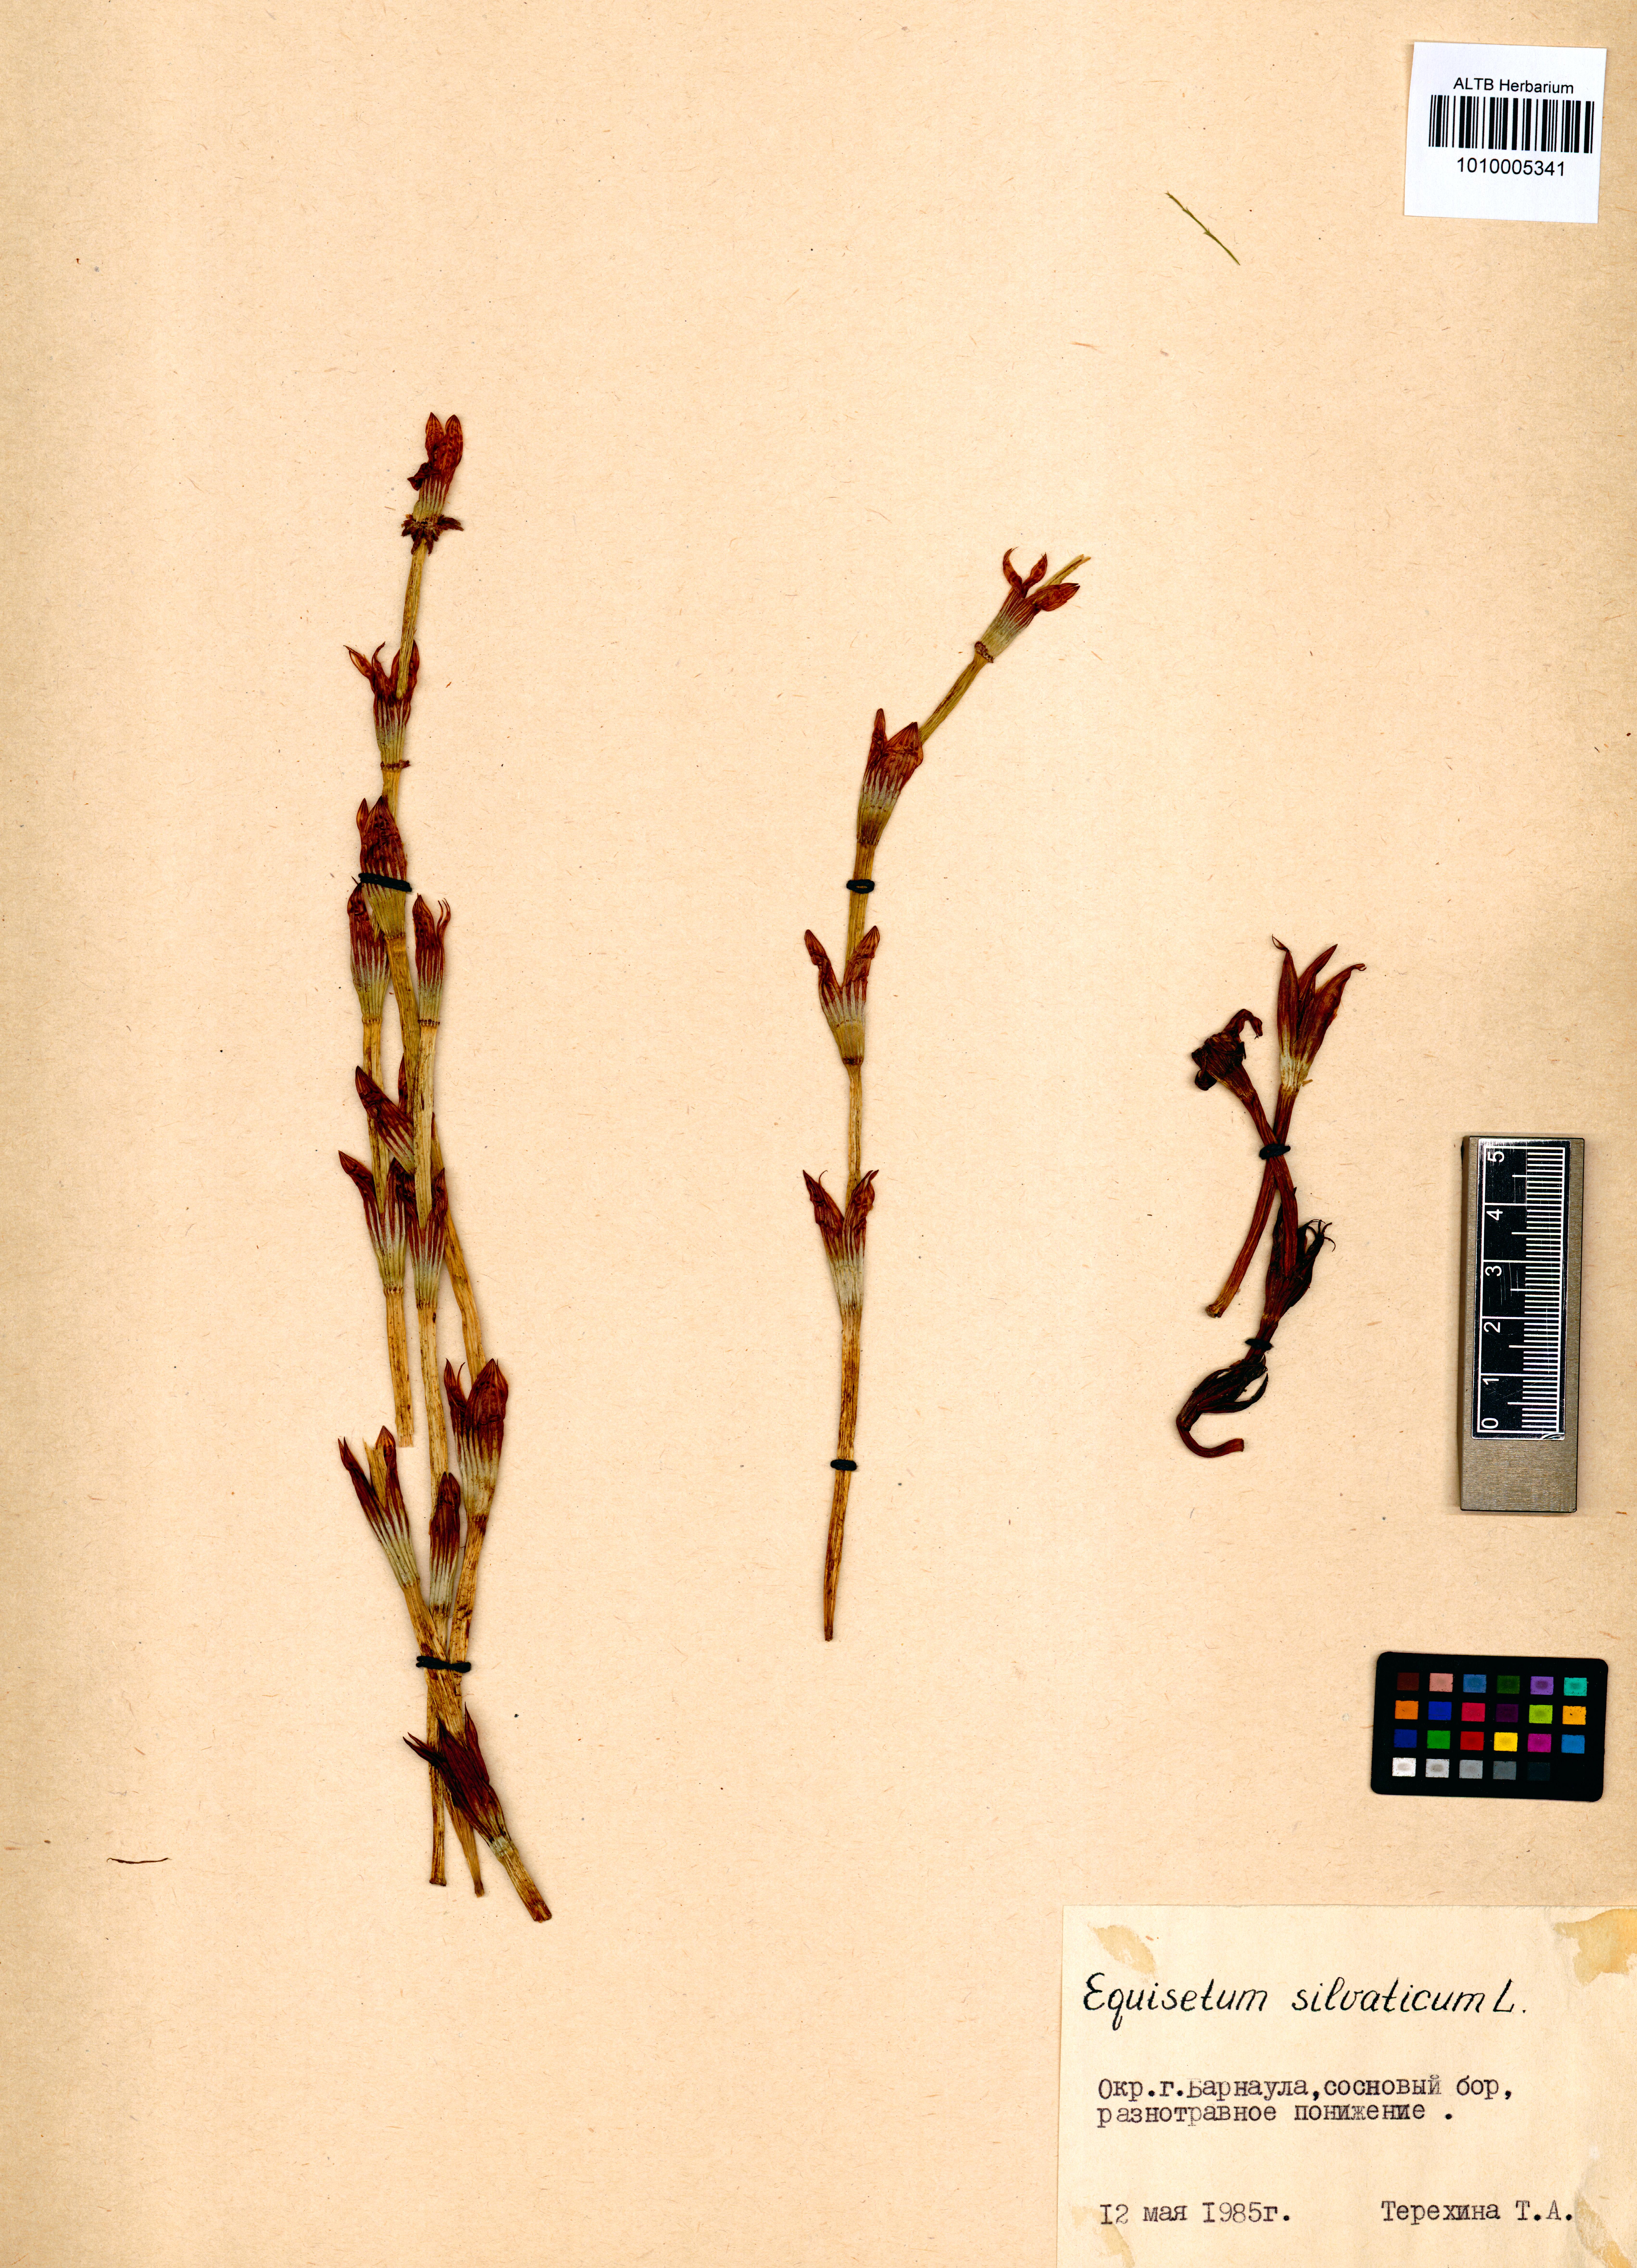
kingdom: Plantae
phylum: Tracheophyta
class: Polypodiopsida
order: Equisetales
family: Equisetaceae
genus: Equisetum
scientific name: Equisetum sylvaticum
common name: Wood horsetail
